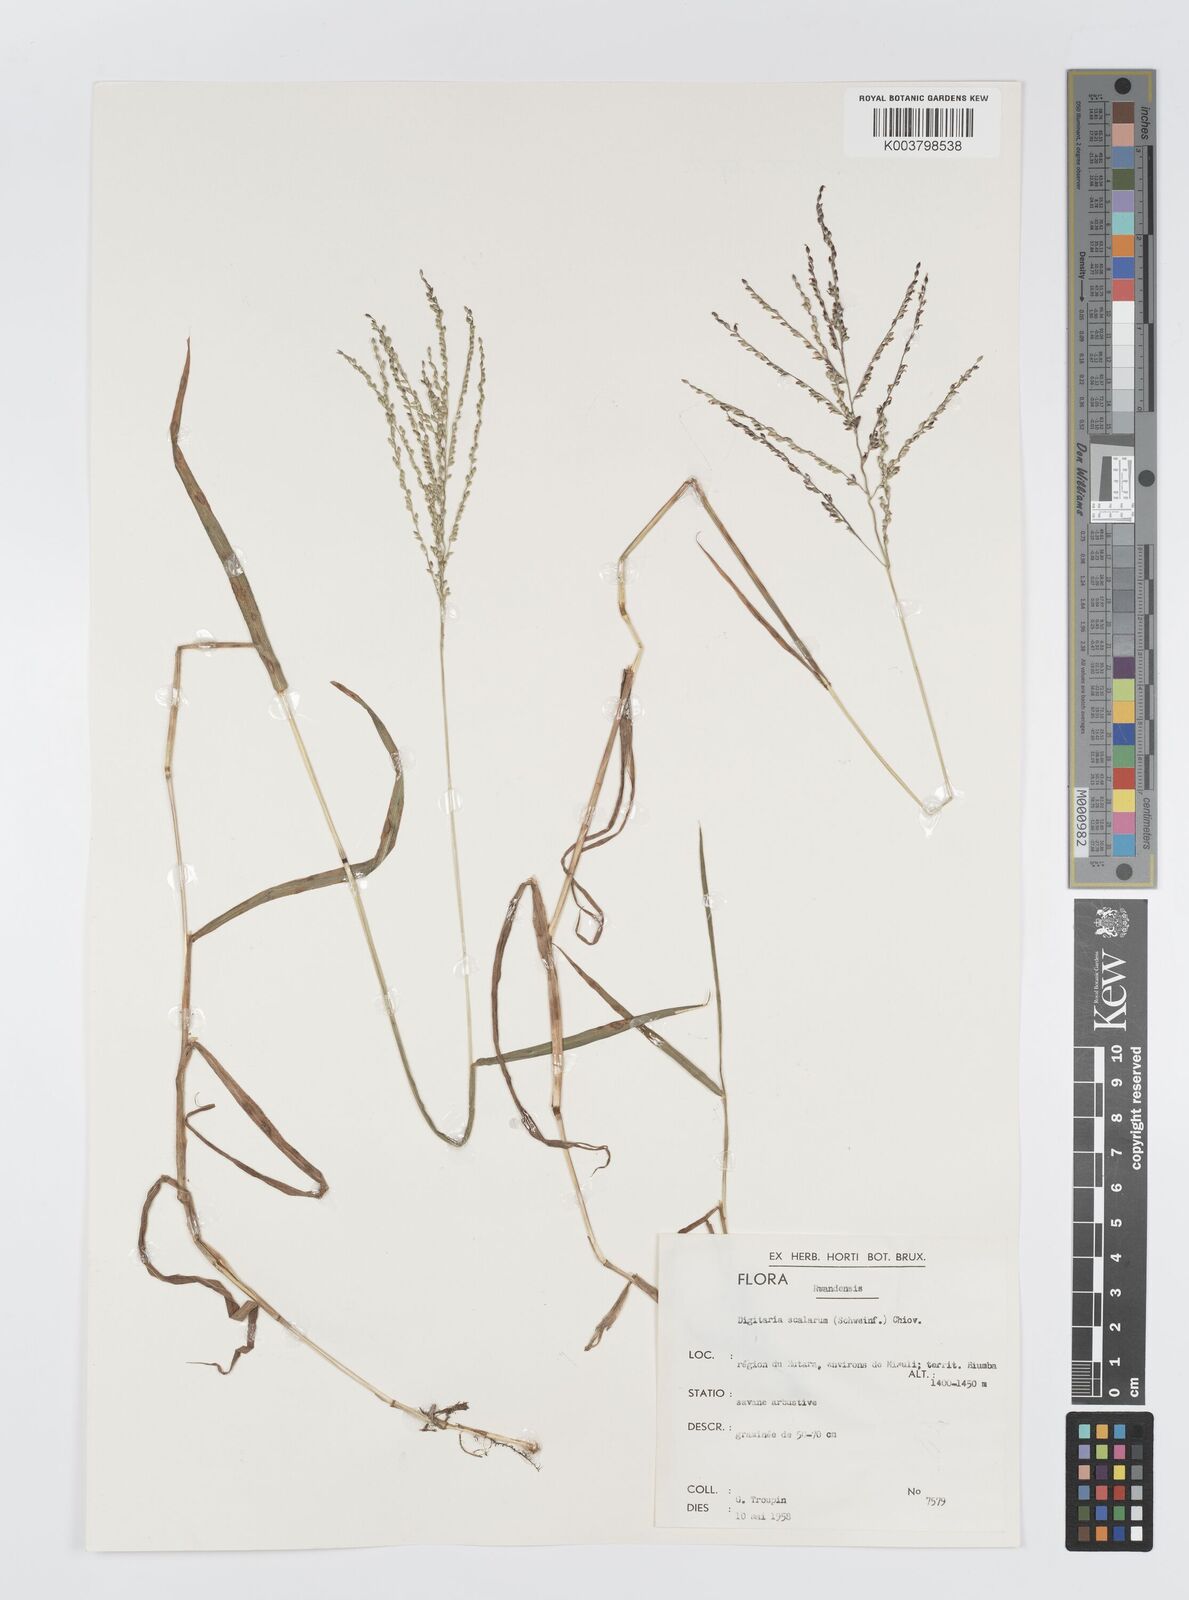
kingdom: Plantae
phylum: Tracheophyta
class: Liliopsida
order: Poales
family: Poaceae
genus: Digitaria
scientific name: Digitaria abyssinica
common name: African couchgrass
